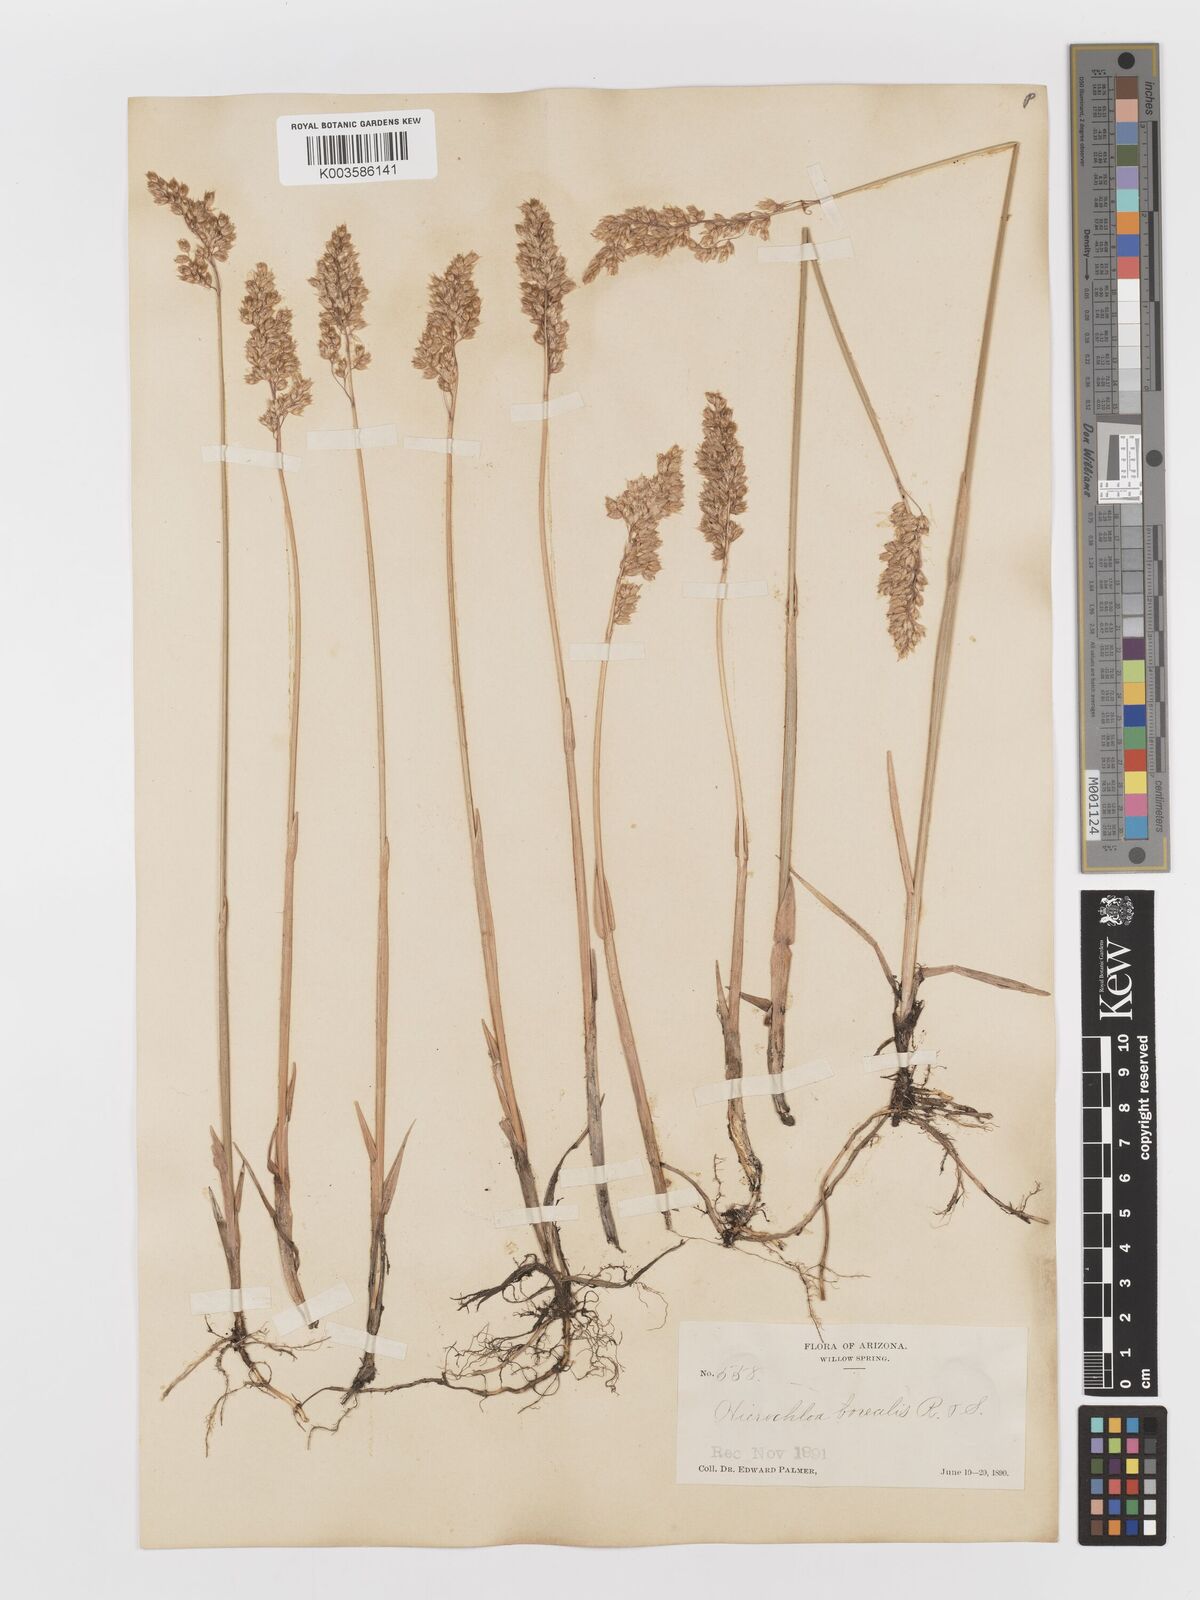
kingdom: Plantae
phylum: Tracheophyta
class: Liliopsida
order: Poales
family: Poaceae
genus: Anthoxanthum
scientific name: Anthoxanthum nitens
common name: Holy grass
